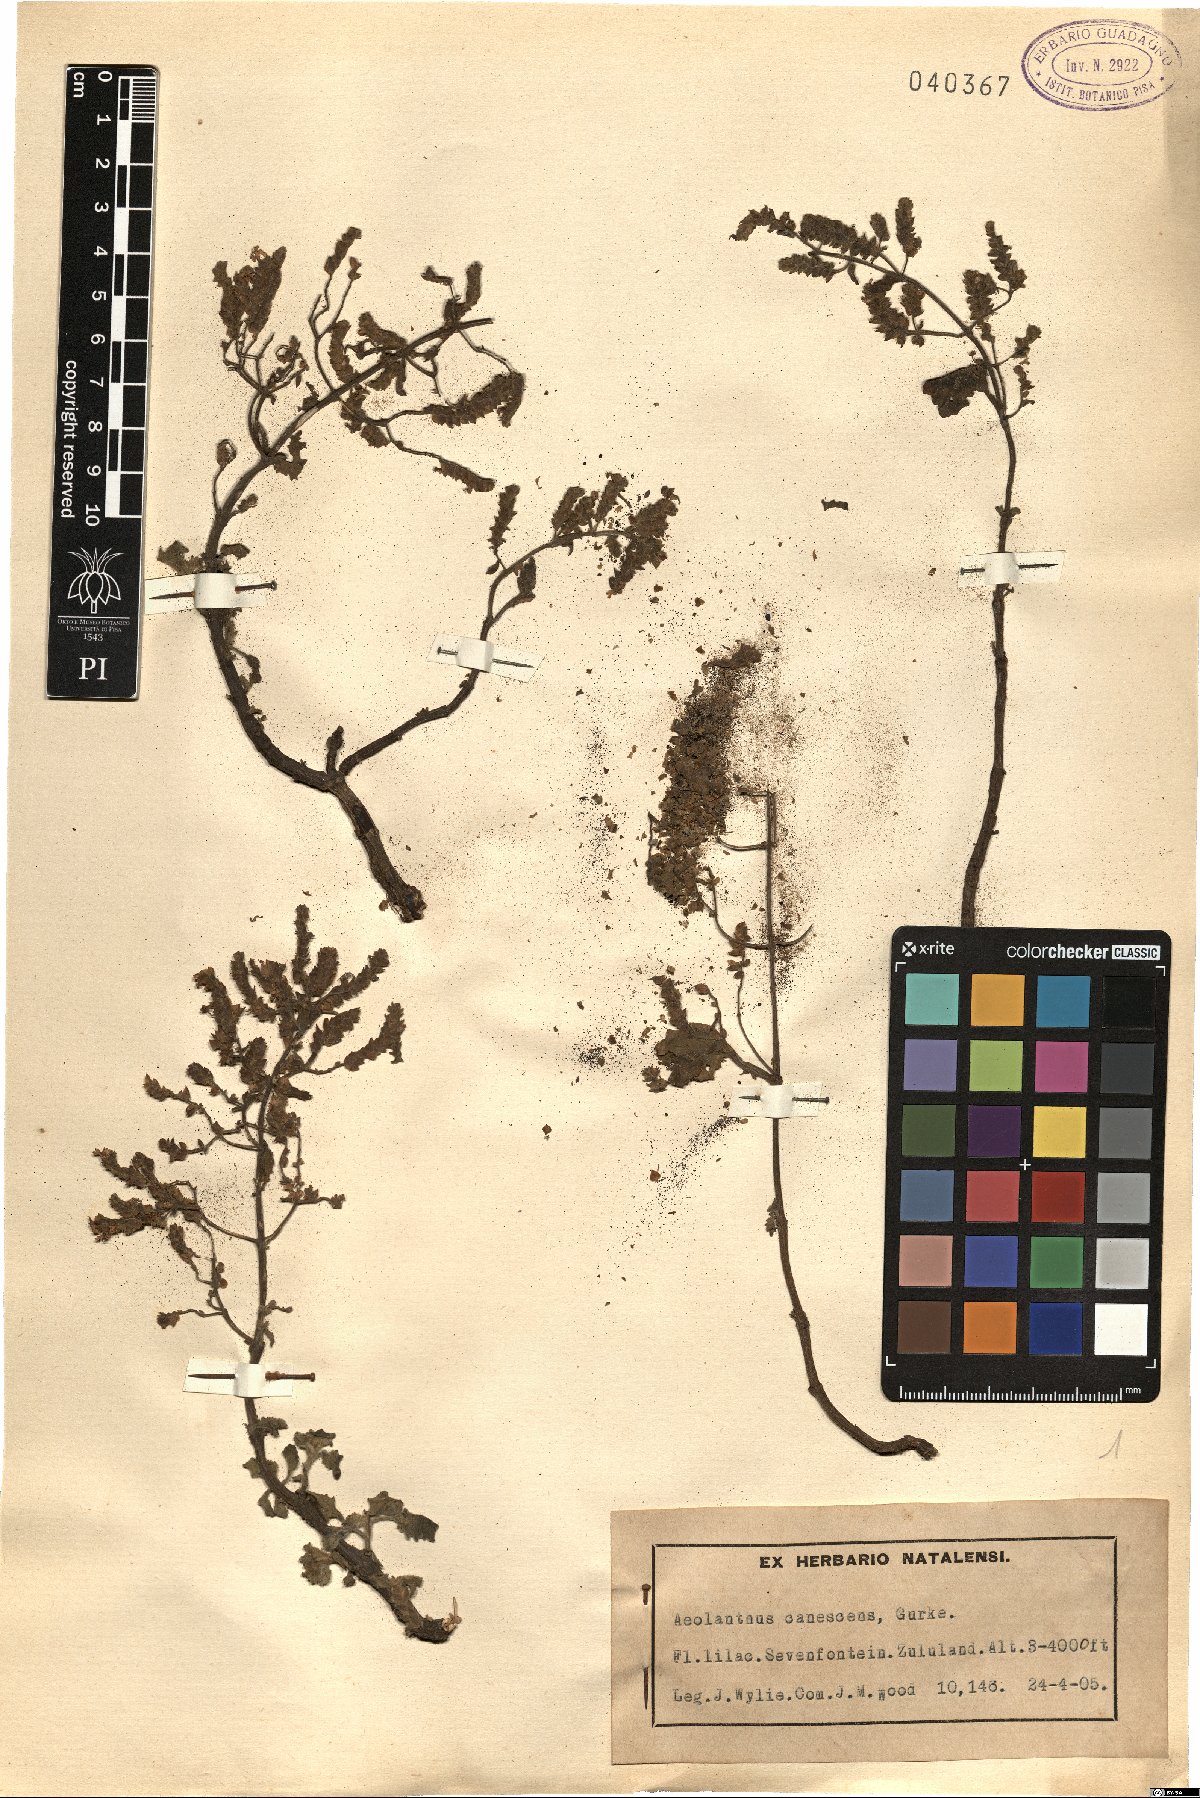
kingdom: Plantae
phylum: Tracheophyta
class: Magnoliopsida
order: Lamiales
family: Lamiaceae
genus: Aeollanthus
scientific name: Aeollanthus buchnerianus
